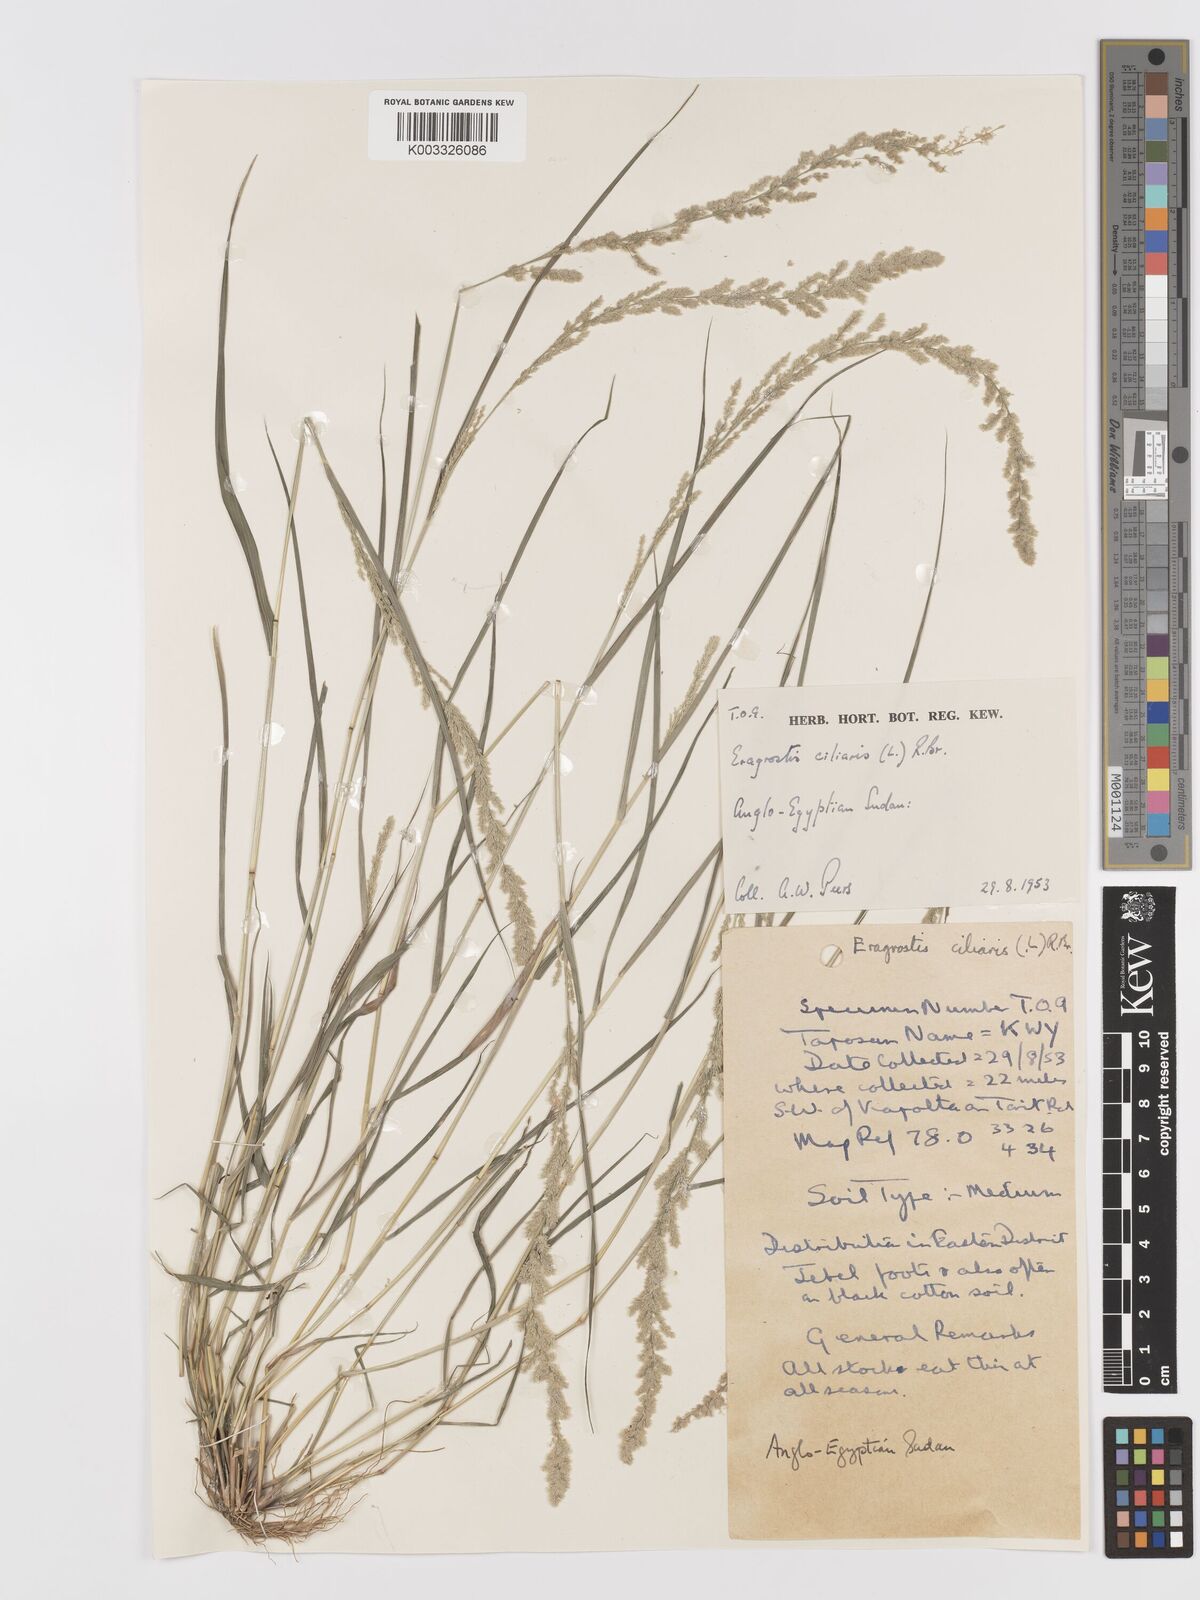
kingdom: Plantae
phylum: Tracheophyta
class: Liliopsida
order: Poales
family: Poaceae
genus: Eragrostis
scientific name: Eragrostis ciliaris
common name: Gophertail lovegrass
